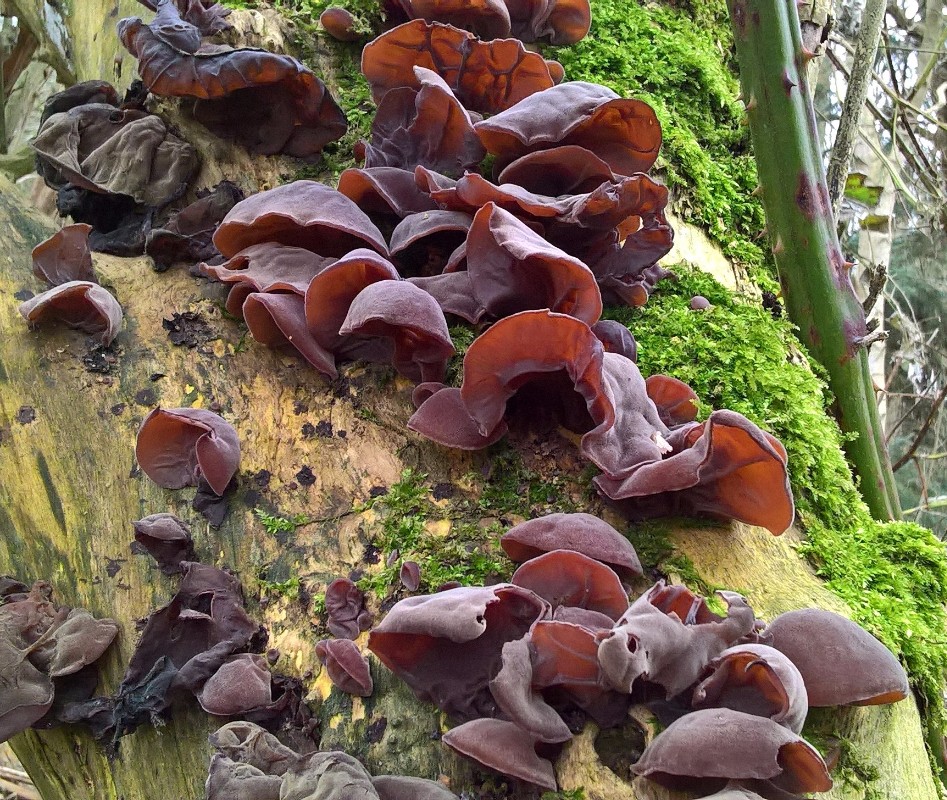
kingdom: Fungi
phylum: Basidiomycota
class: Agaricomycetes
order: Auriculariales
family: Auriculariaceae
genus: Auricularia
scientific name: Auricularia auricula-judae
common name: almindelig judasøre
